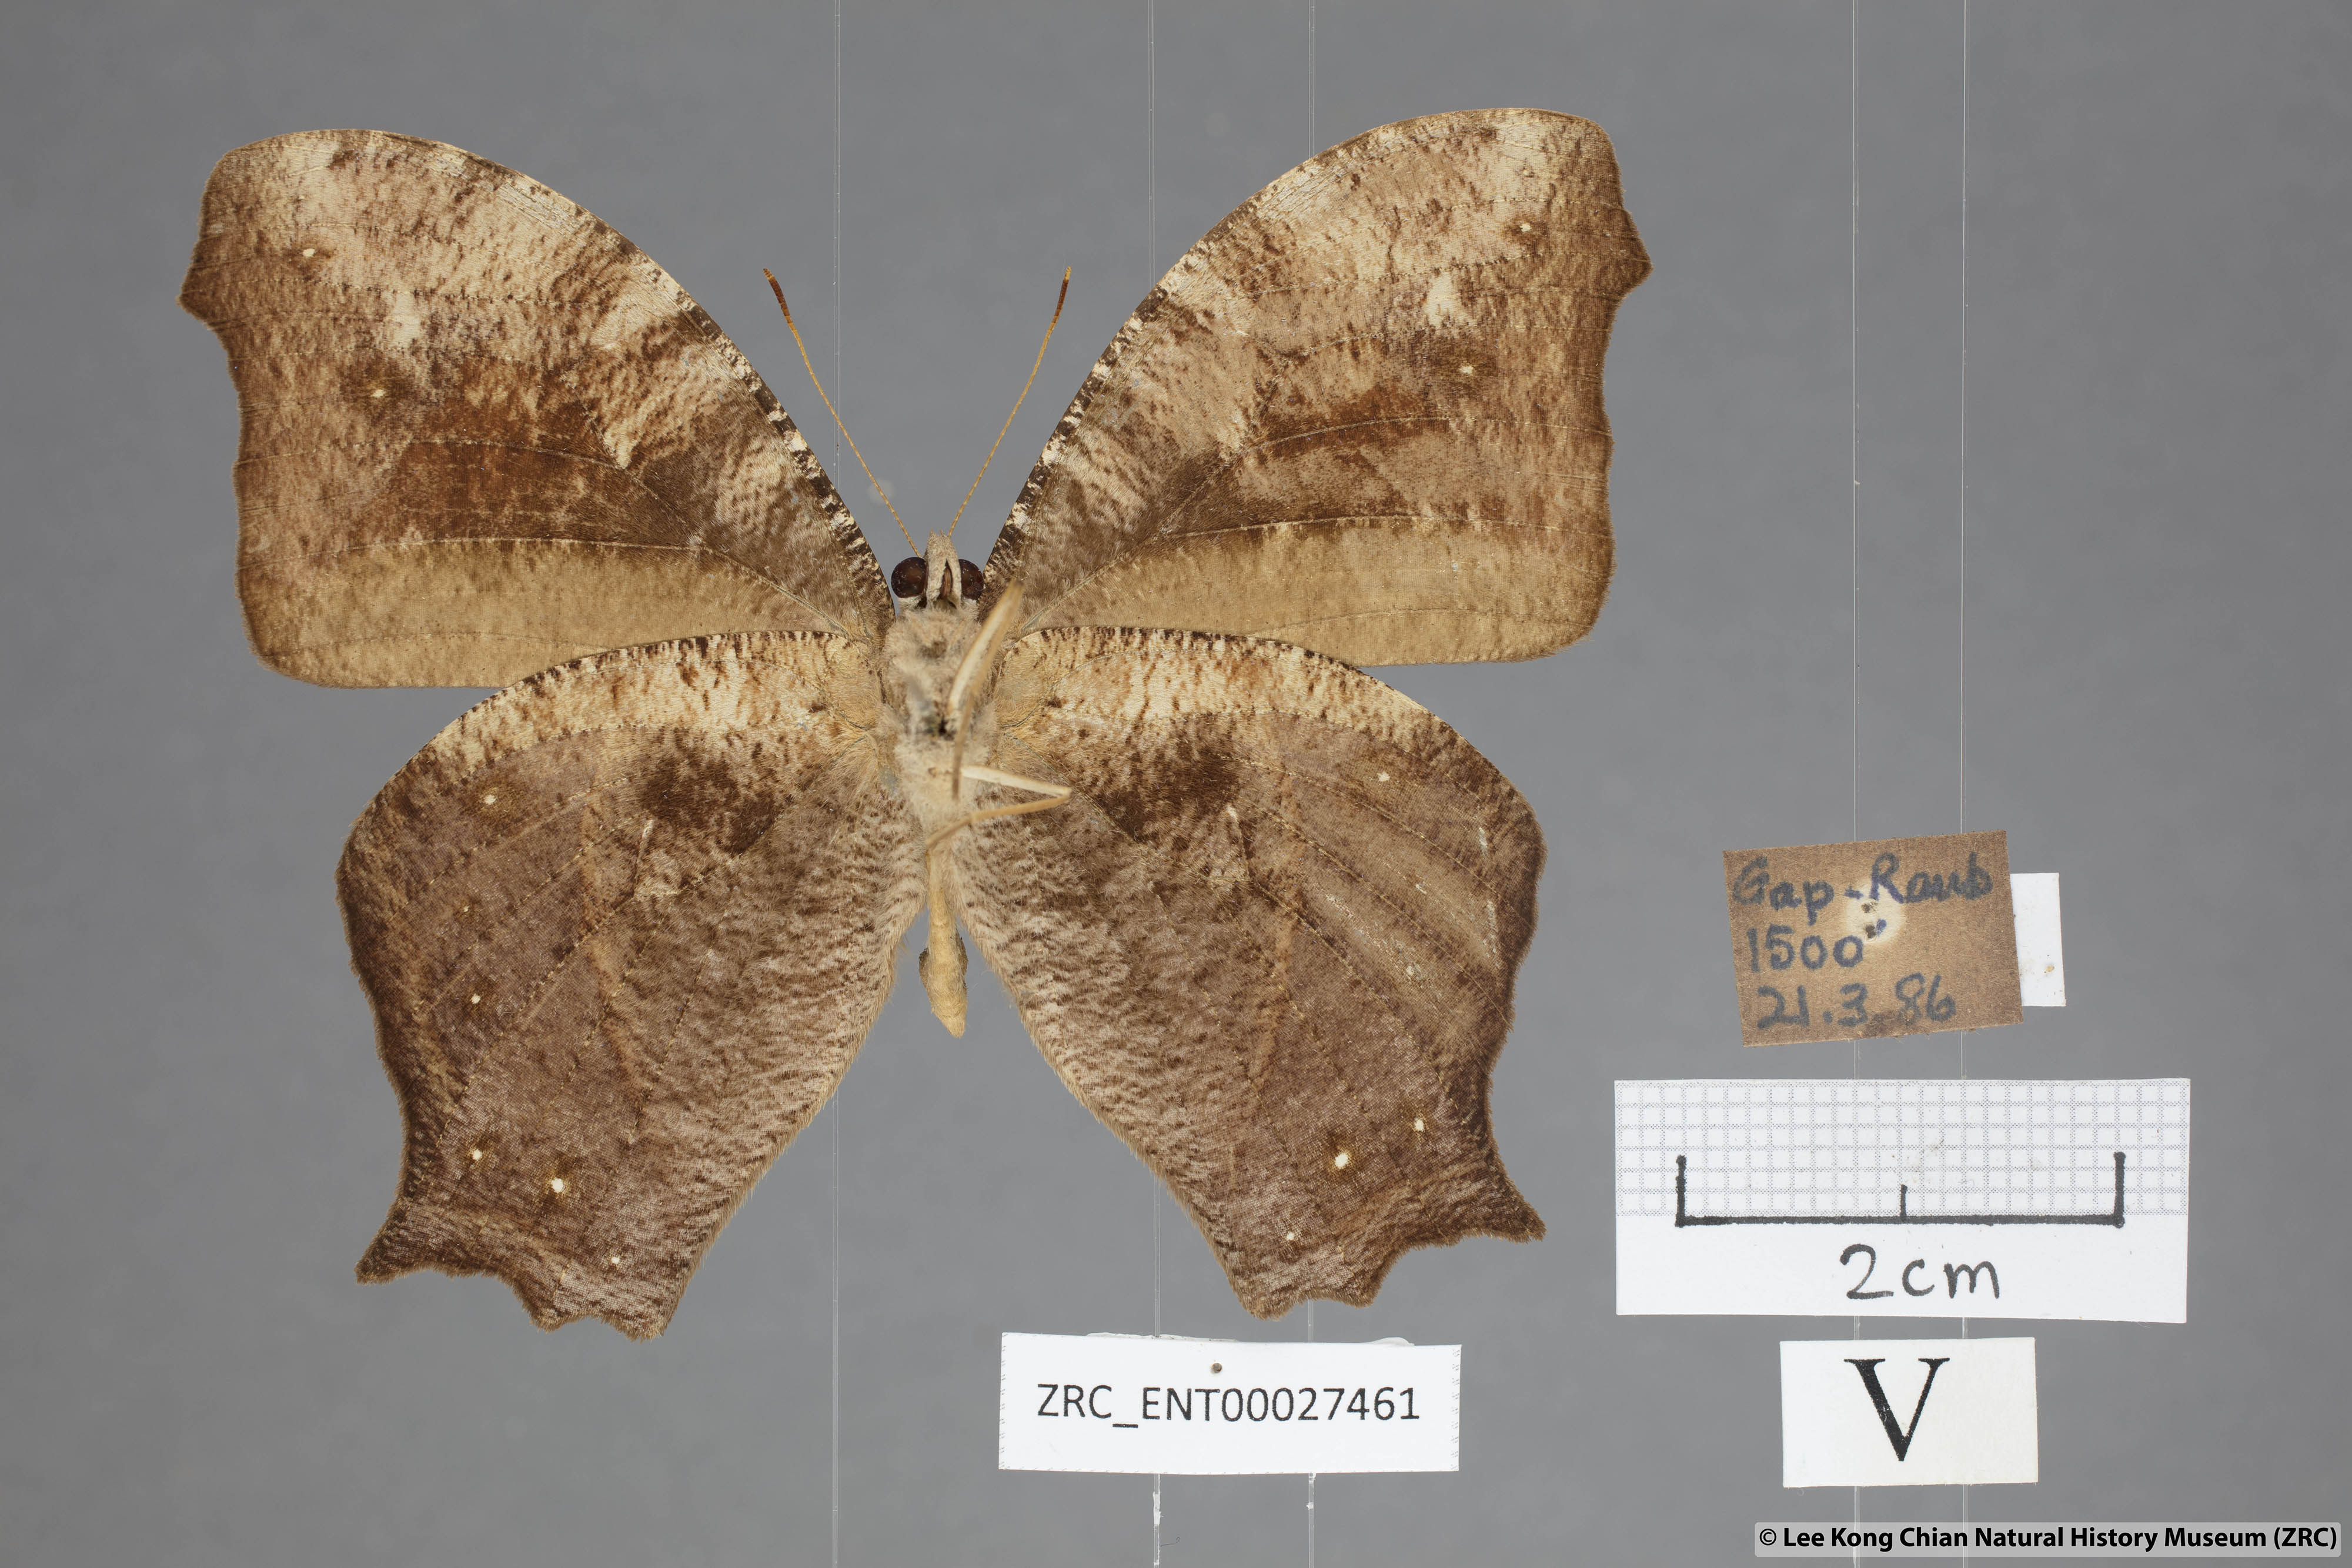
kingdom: Animalia
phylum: Arthropoda
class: Insecta
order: Lepidoptera
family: Nymphalidae
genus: Melanitis
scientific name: Melanitis phedima
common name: Dark evening brown
